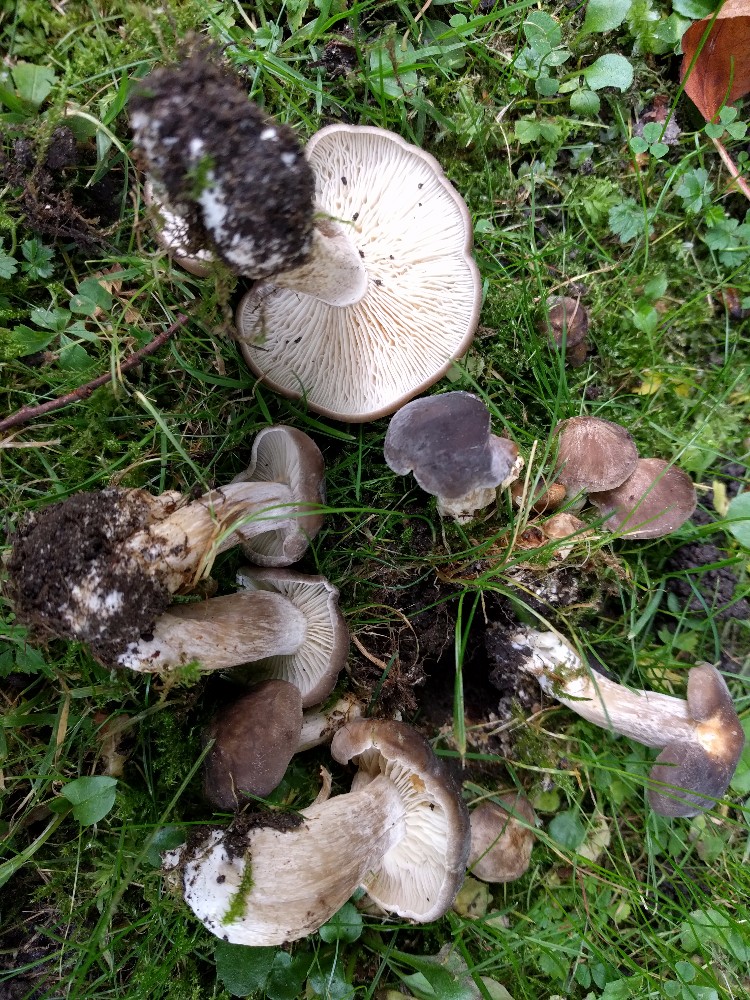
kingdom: Fungi
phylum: Basidiomycota
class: Agaricomycetes
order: Agaricales
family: Lyophyllaceae
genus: Lyophyllum
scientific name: Lyophyllum decastes
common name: Clustered domecap
